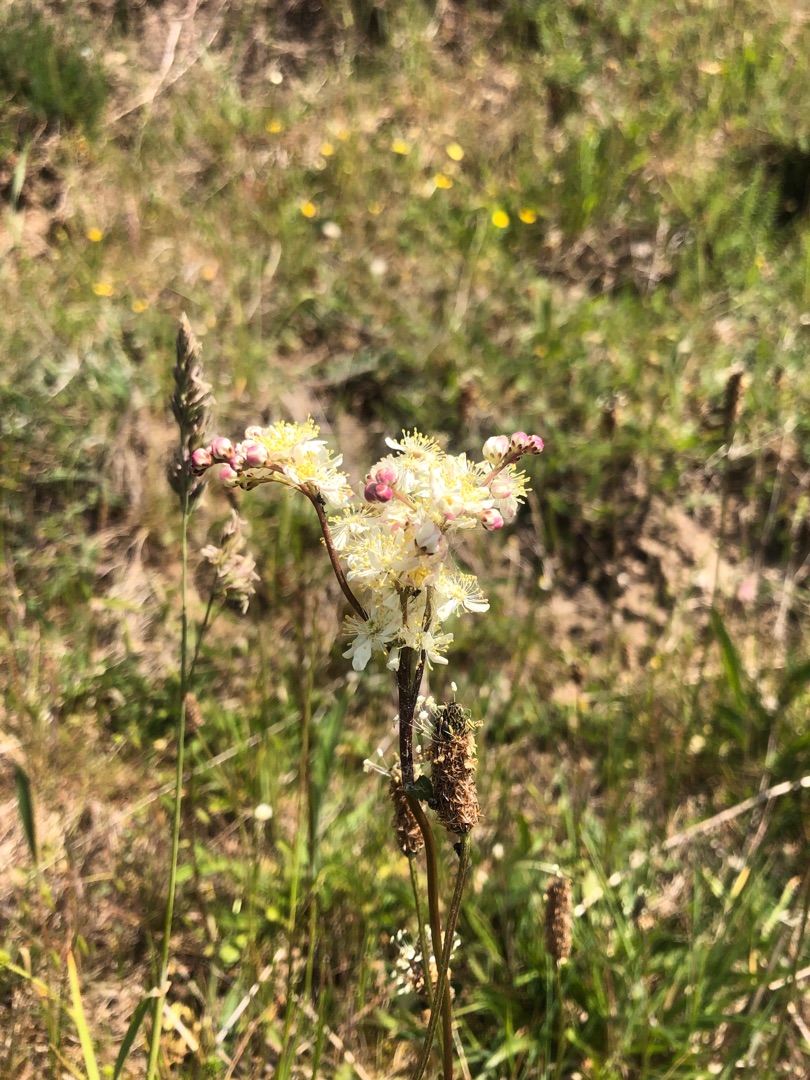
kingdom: Plantae
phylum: Tracheophyta
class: Magnoliopsida
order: Rosales
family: Rosaceae
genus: Filipendula
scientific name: Filipendula vulgaris
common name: Knoldet mjødurt
